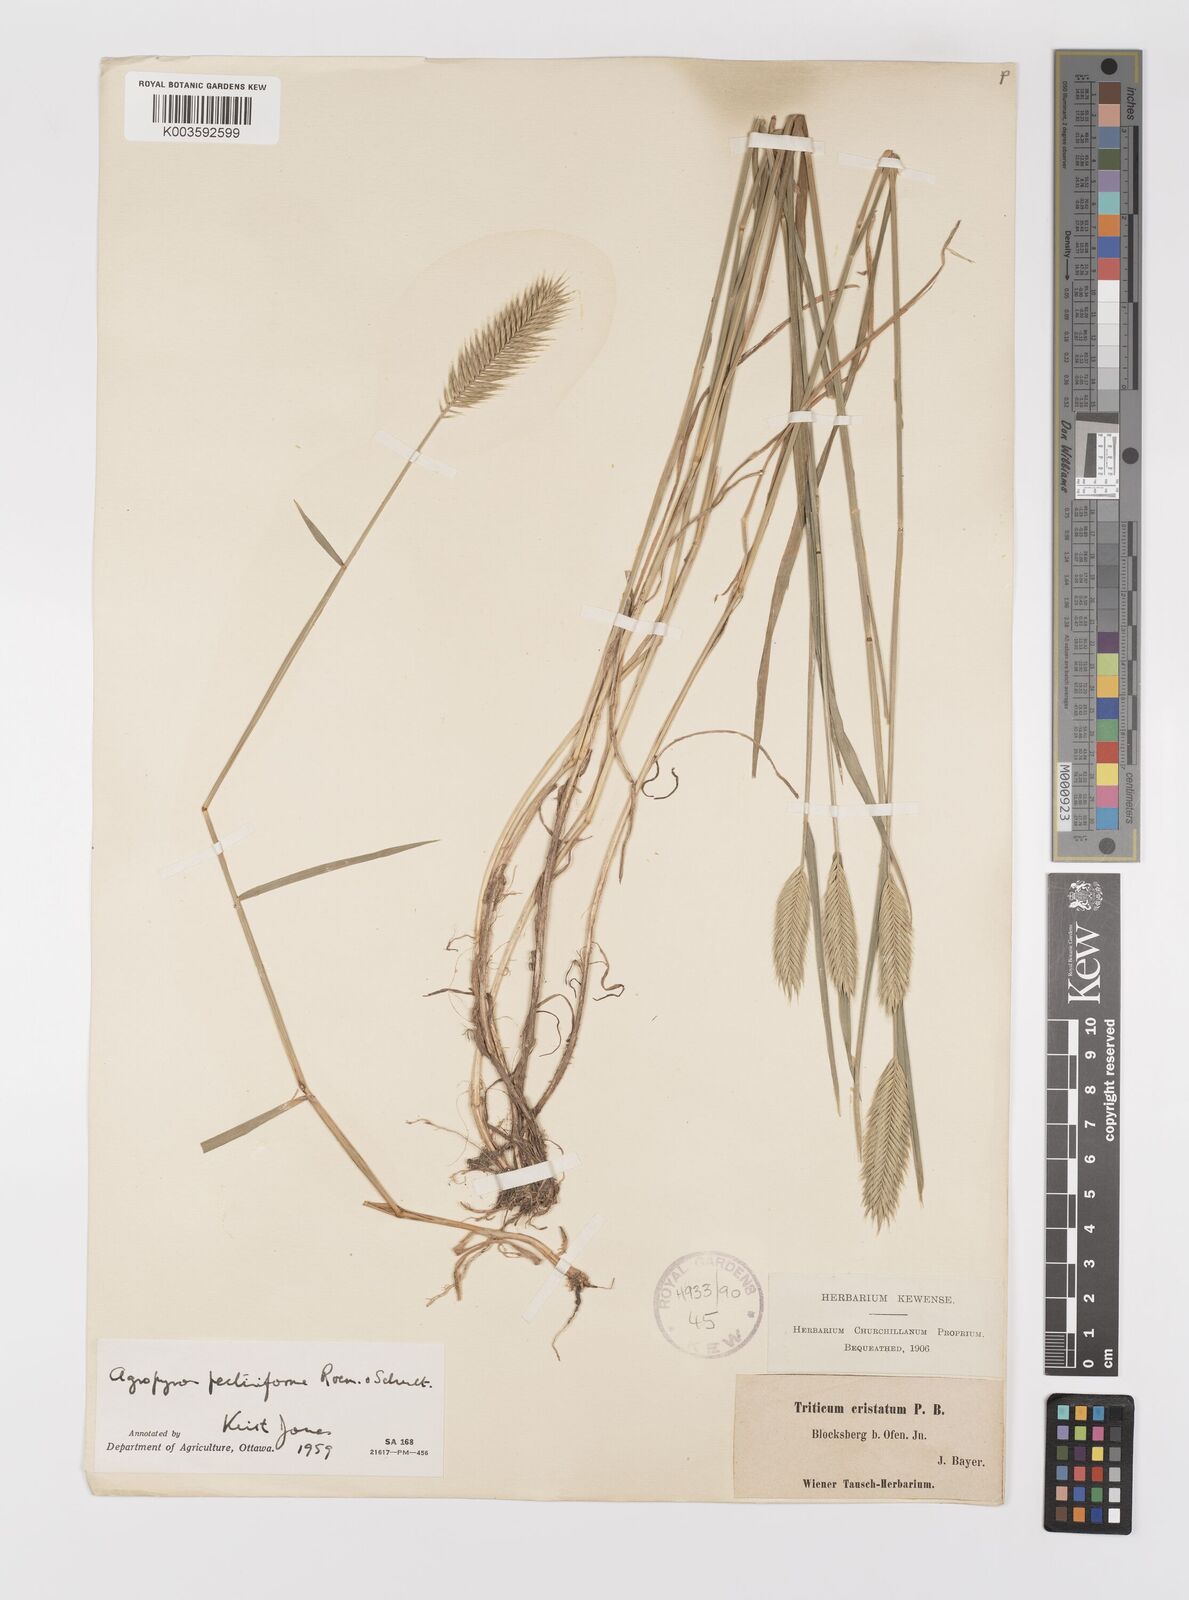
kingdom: Plantae
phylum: Tracheophyta
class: Liliopsida
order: Poales
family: Poaceae
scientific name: Poaceae
